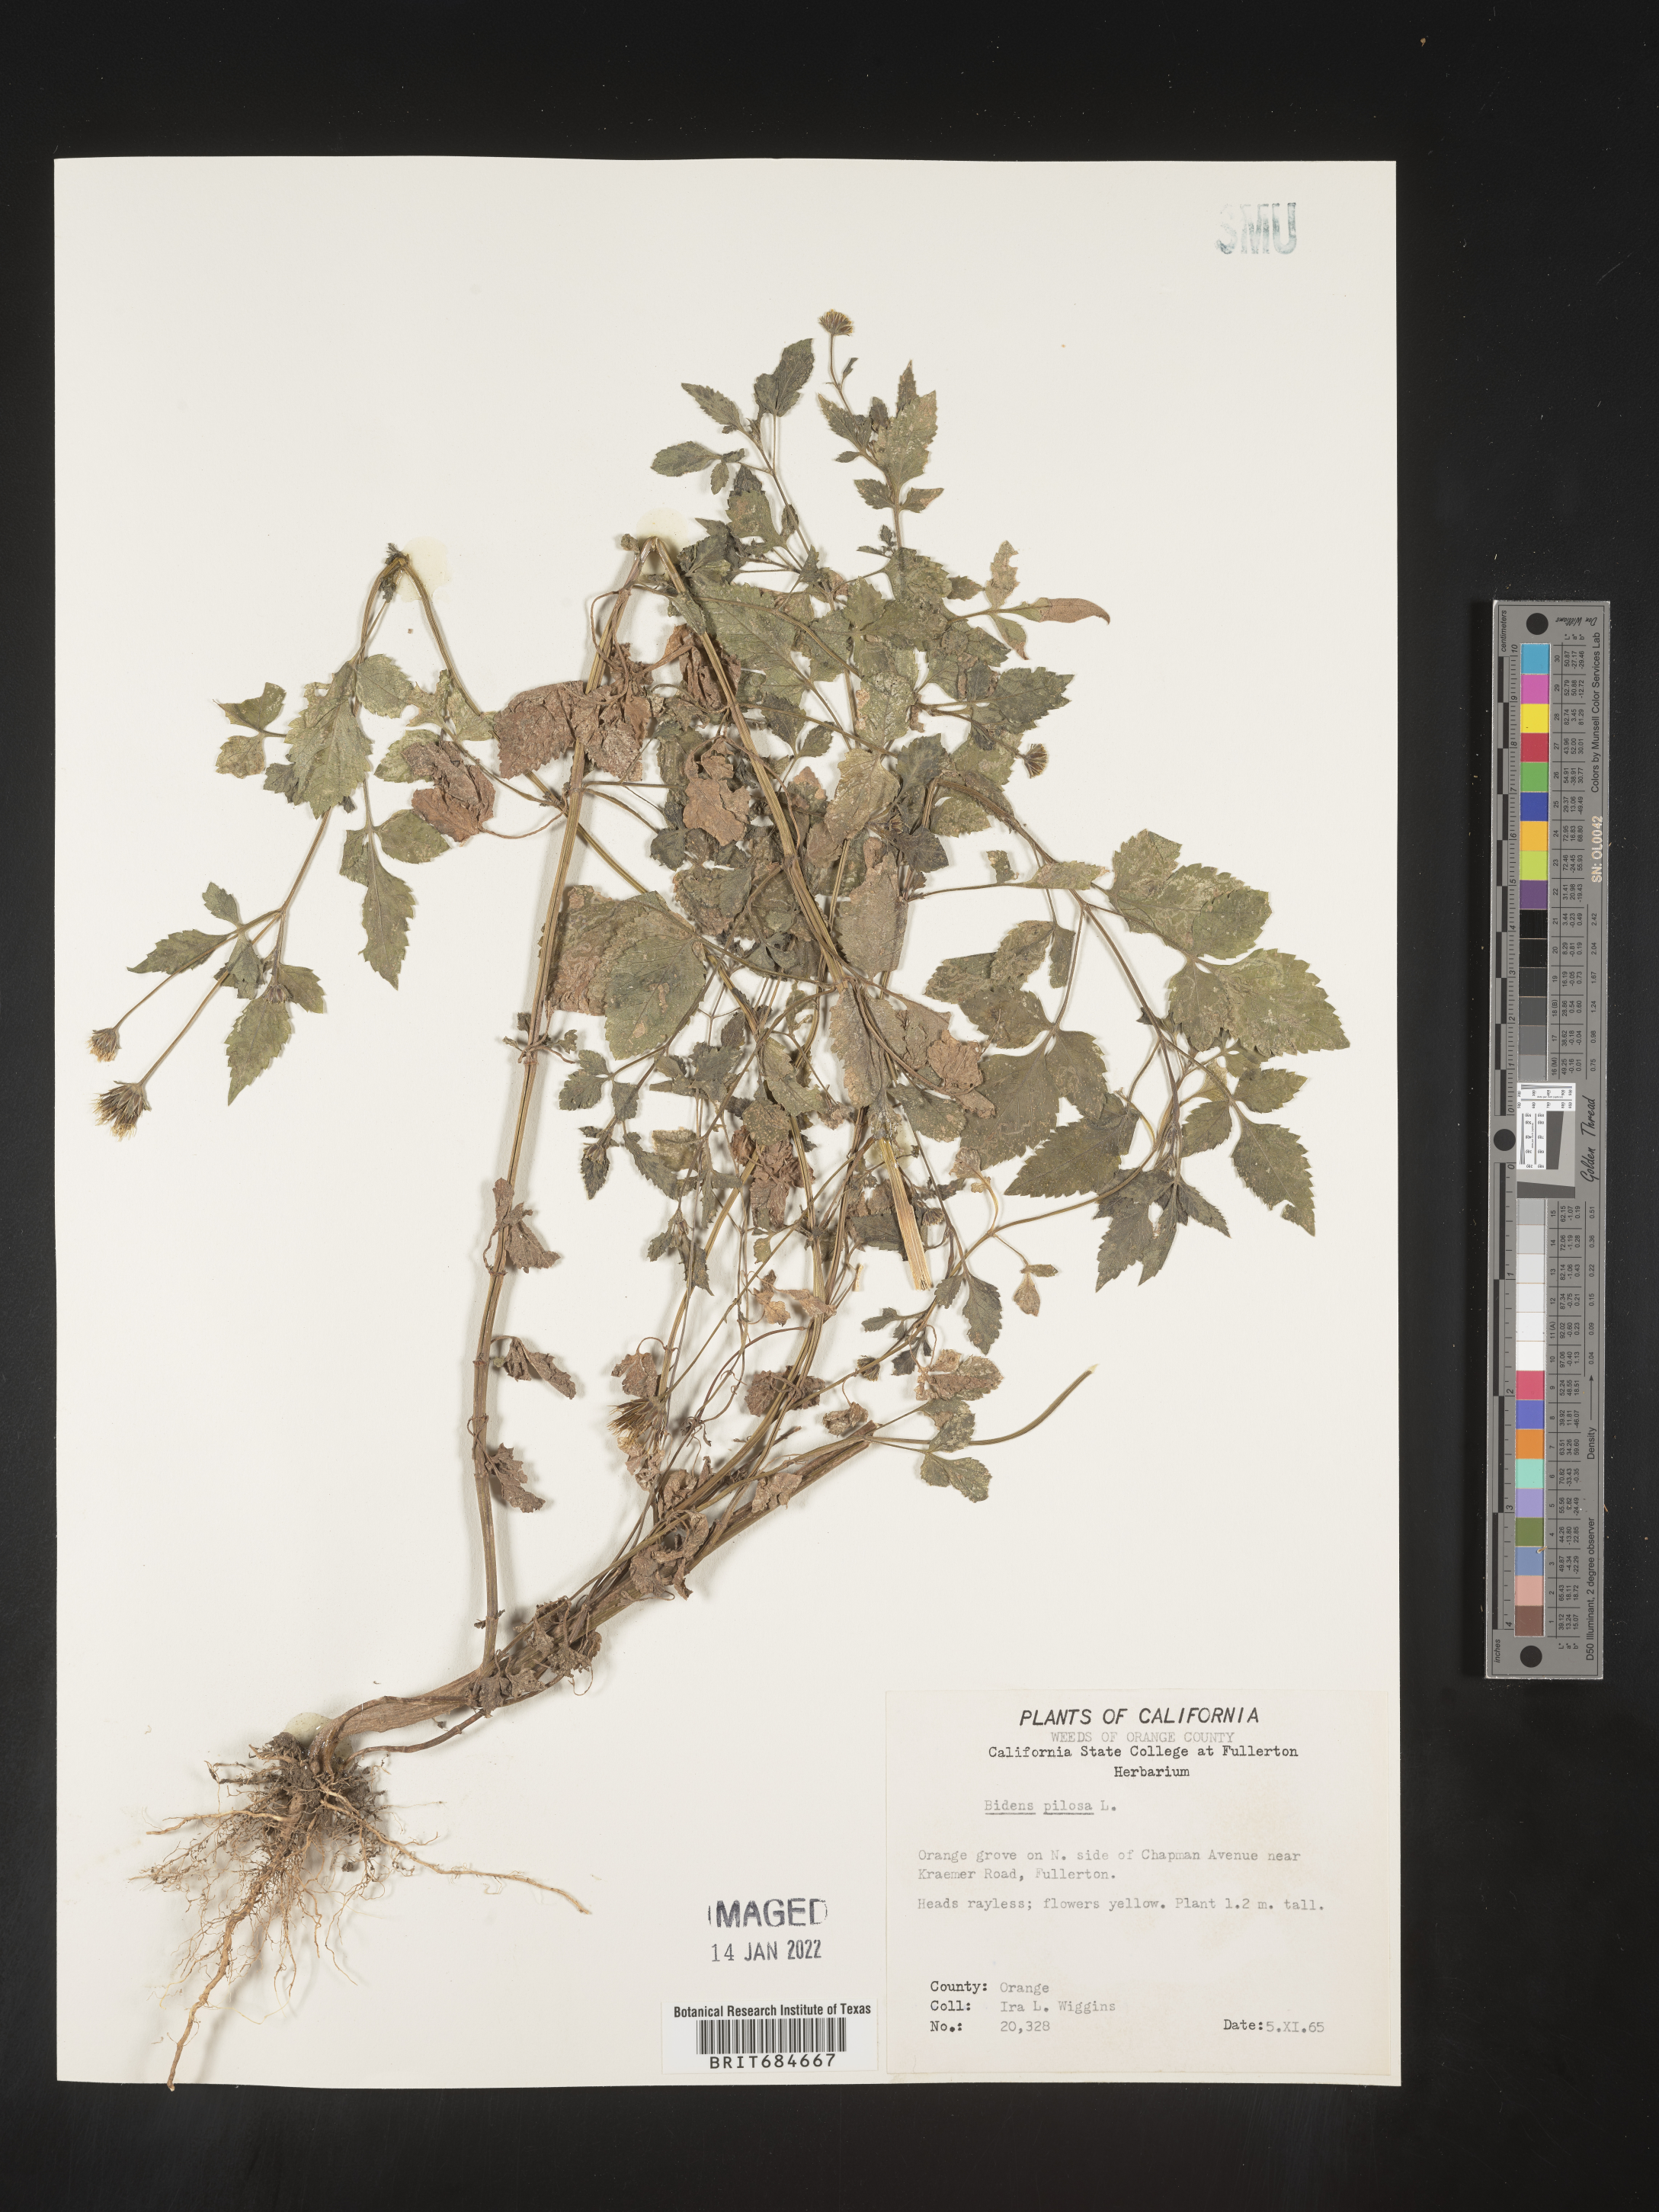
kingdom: Plantae
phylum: Tracheophyta
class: Magnoliopsida
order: Asterales
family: Asteraceae
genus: Bidens
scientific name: Bidens pilosa
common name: Black-jack
